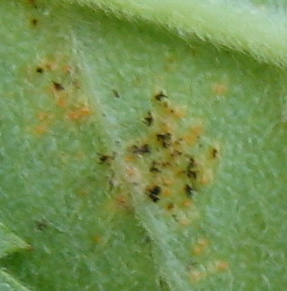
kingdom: Fungi
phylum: Basidiomycota
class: Pucciniomycetes
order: Pucciniales
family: Phragmidiaceae
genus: Phragmidium
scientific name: Phragmidium
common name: flercellerust
